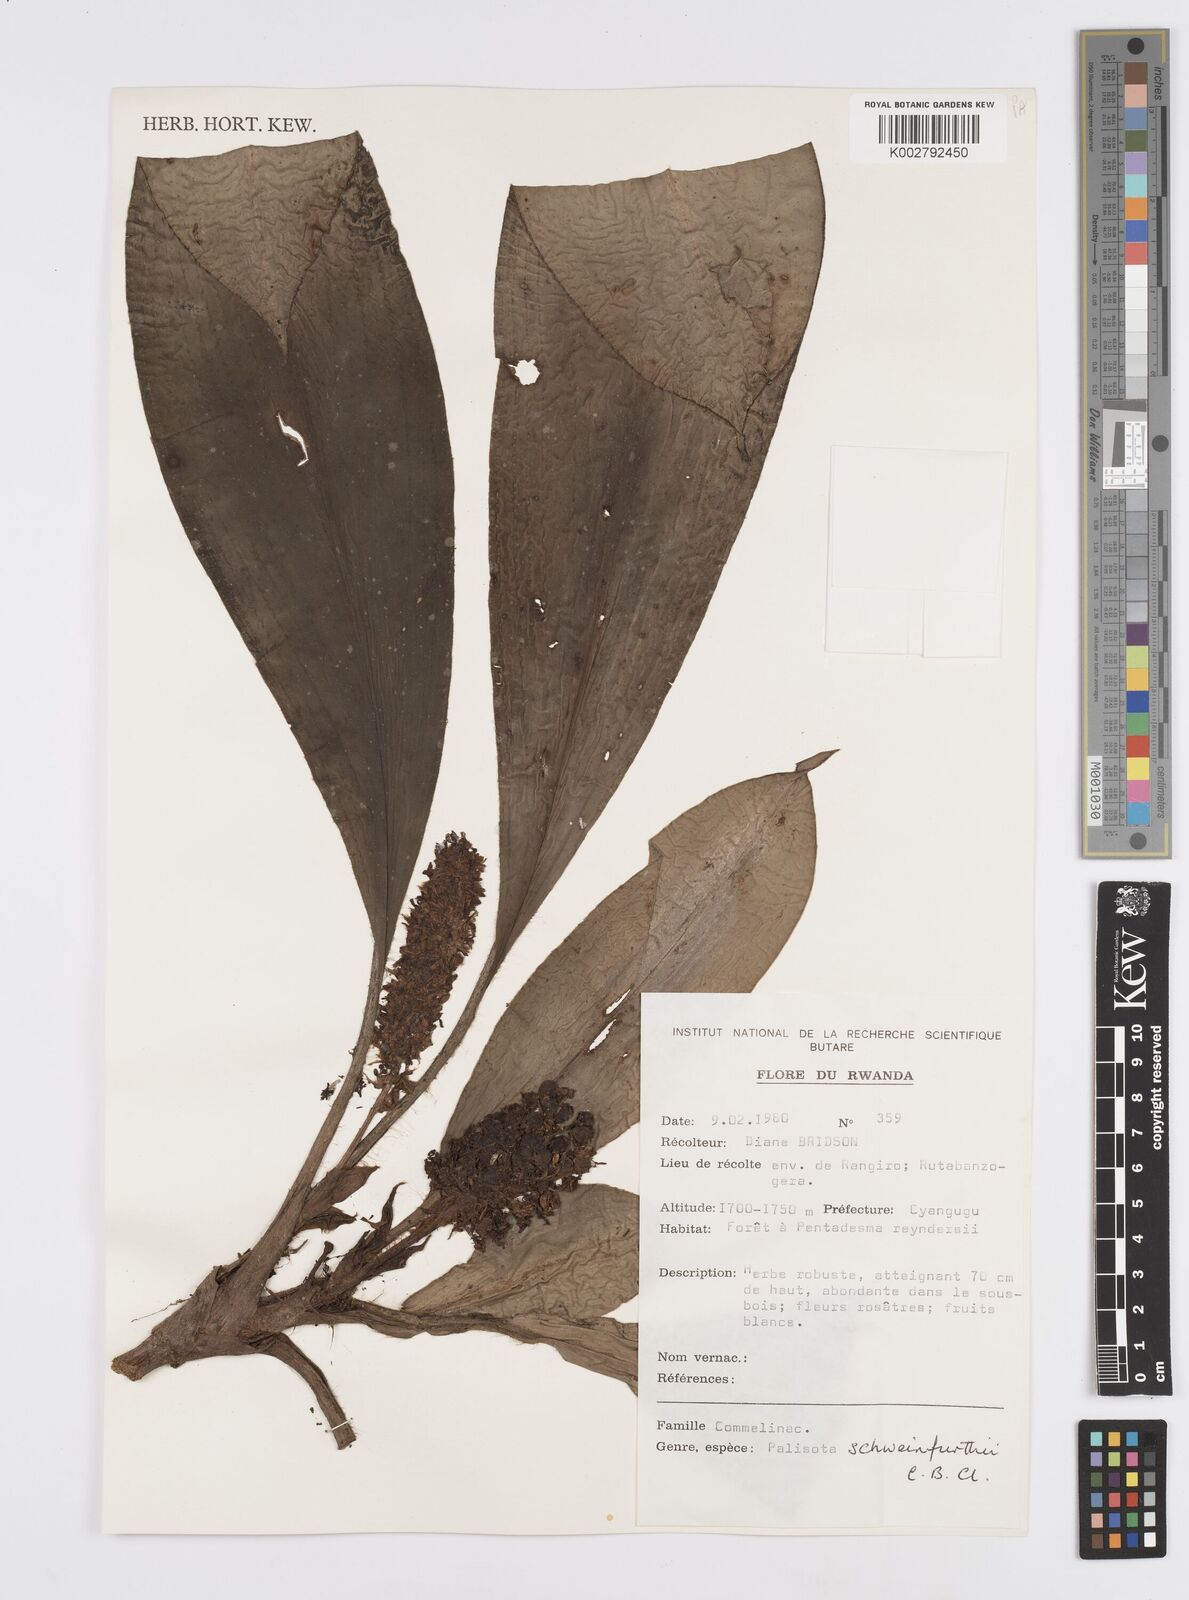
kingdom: Plantae
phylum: Tracheophyta
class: Liliopsida
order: Commelinales
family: Commelinaceae
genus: Palisota
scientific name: Palisota schweinfurthii
